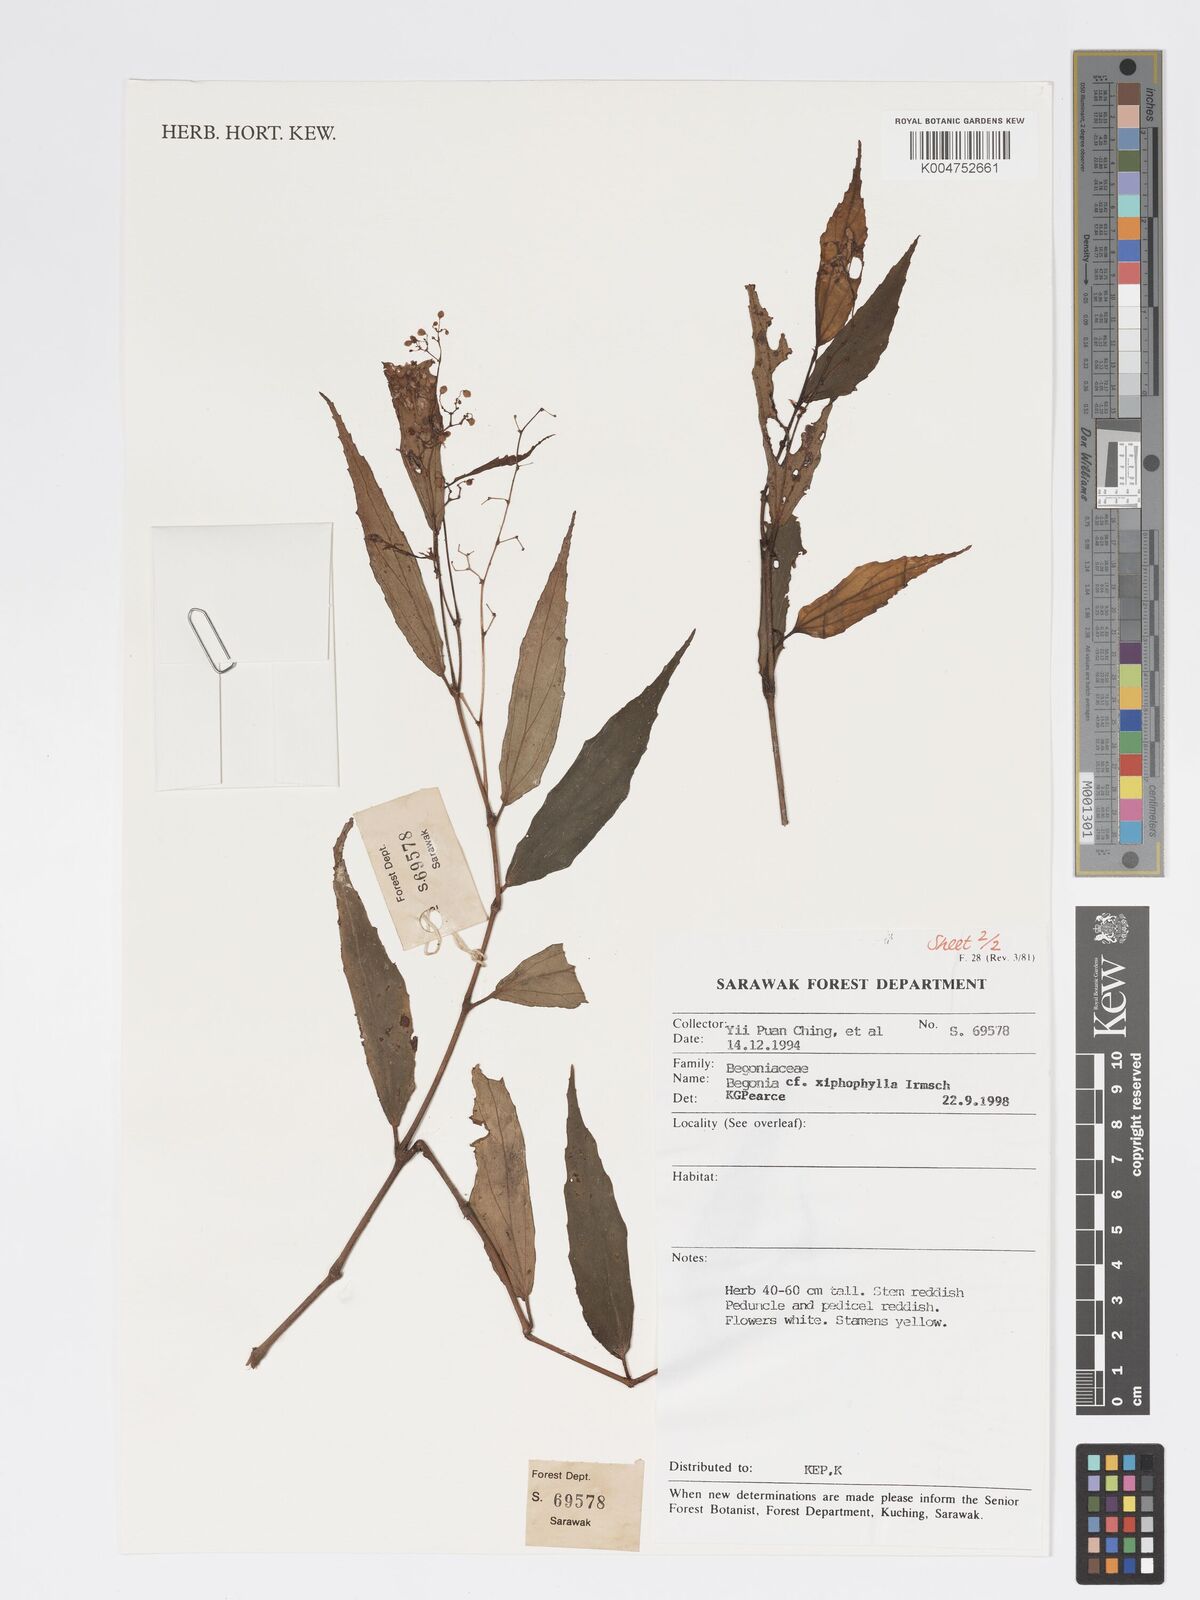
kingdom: Plantae
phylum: Tracheophyta
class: Magnoliopsida
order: Cucurbitales
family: Begoniaceae
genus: Begonia
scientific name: Begonia xiphophylla
